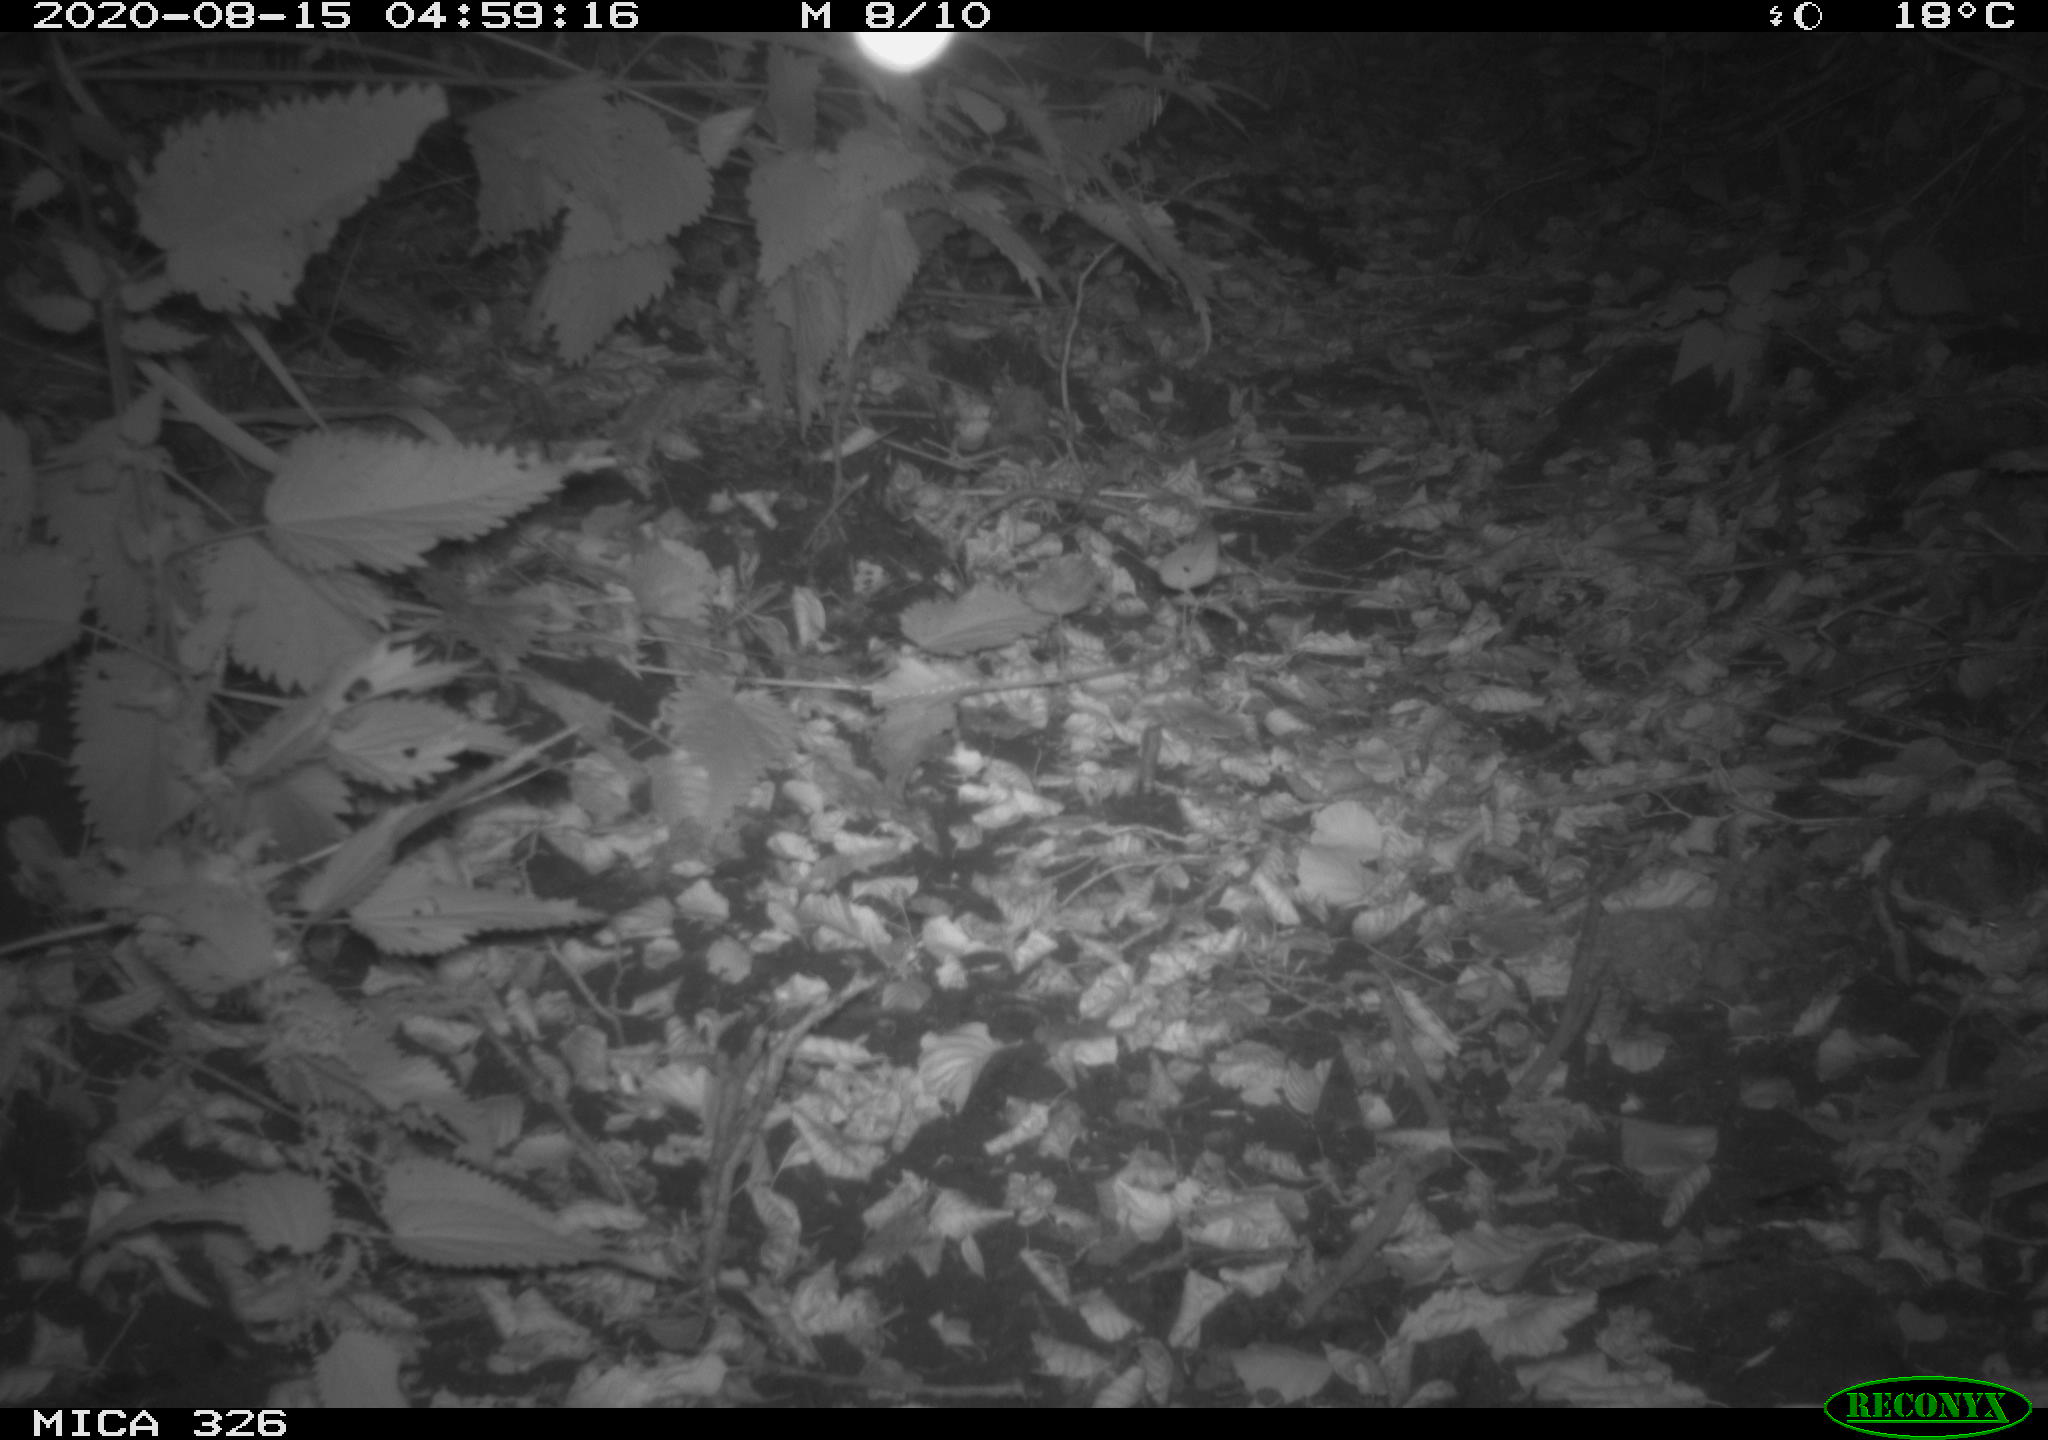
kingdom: Animalia
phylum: Chordata
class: Mammalia
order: Rodentia
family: Muridae
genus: Rattus
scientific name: Rattus norvegicus
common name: Brown rat
